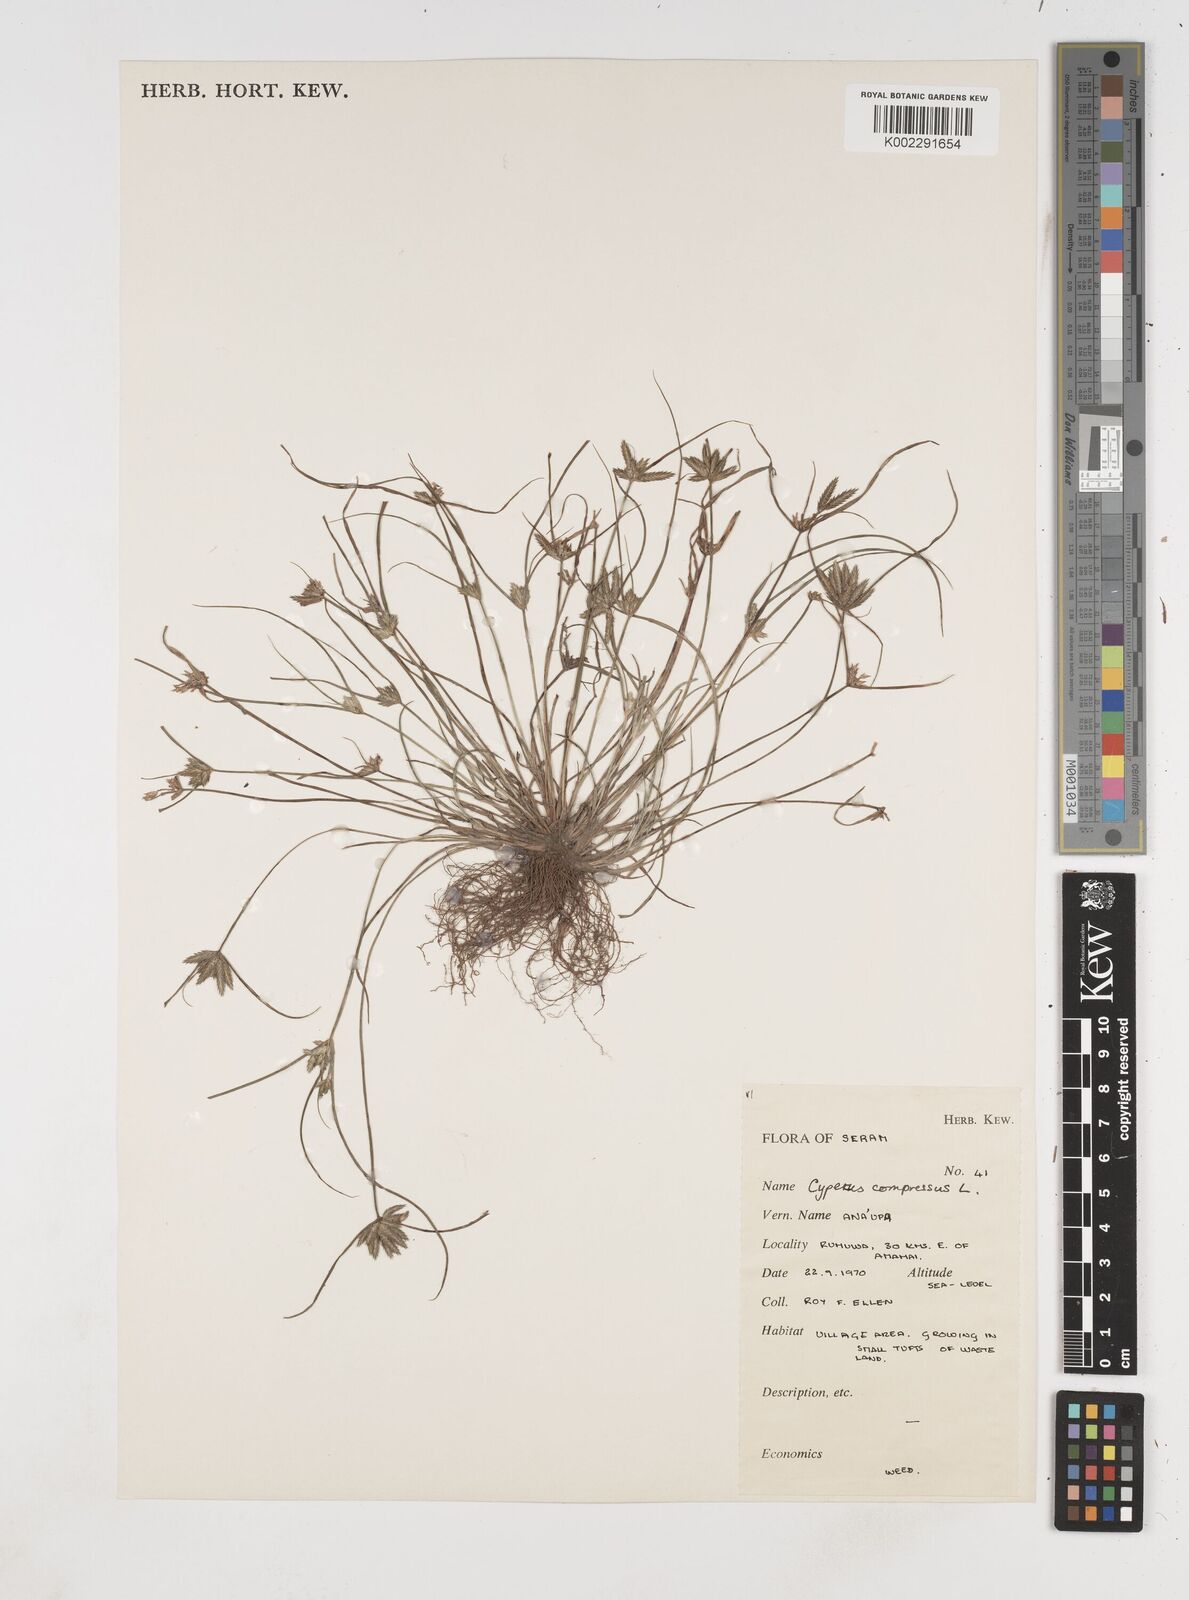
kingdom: Plantae
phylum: Tracheophyta
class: Liliopsida
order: Poales
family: Cyperaceae
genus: Cyperus
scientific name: Cyperus compressus
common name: Poorland flatsedge
